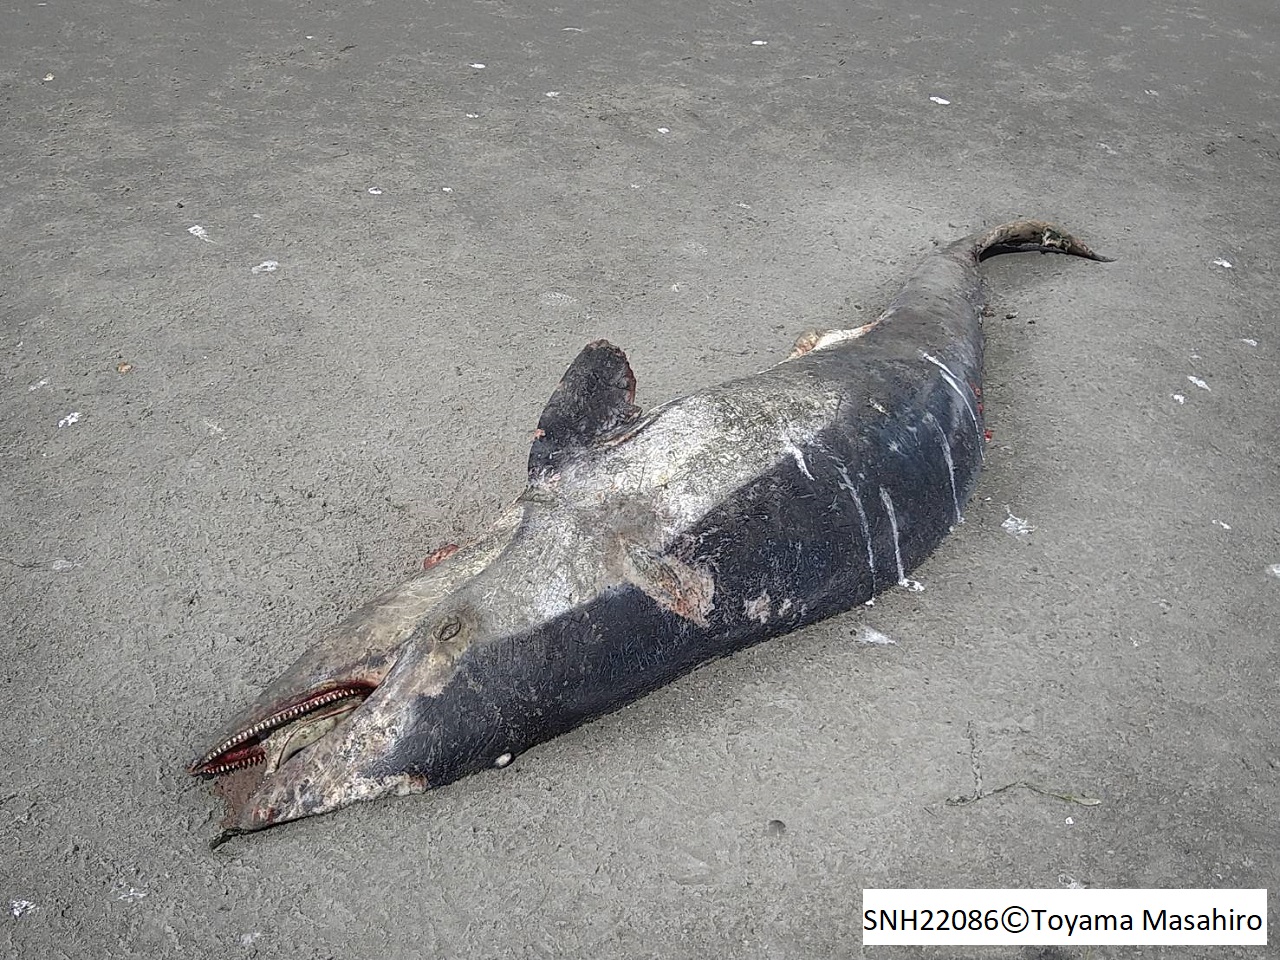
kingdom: Animalia
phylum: Chordata
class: Mammalia
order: Cetacea
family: Delphinidae
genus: Lagenorhynchus
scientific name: Lagenorhynchus obliquidens
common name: Pacific white-sided dolphin
